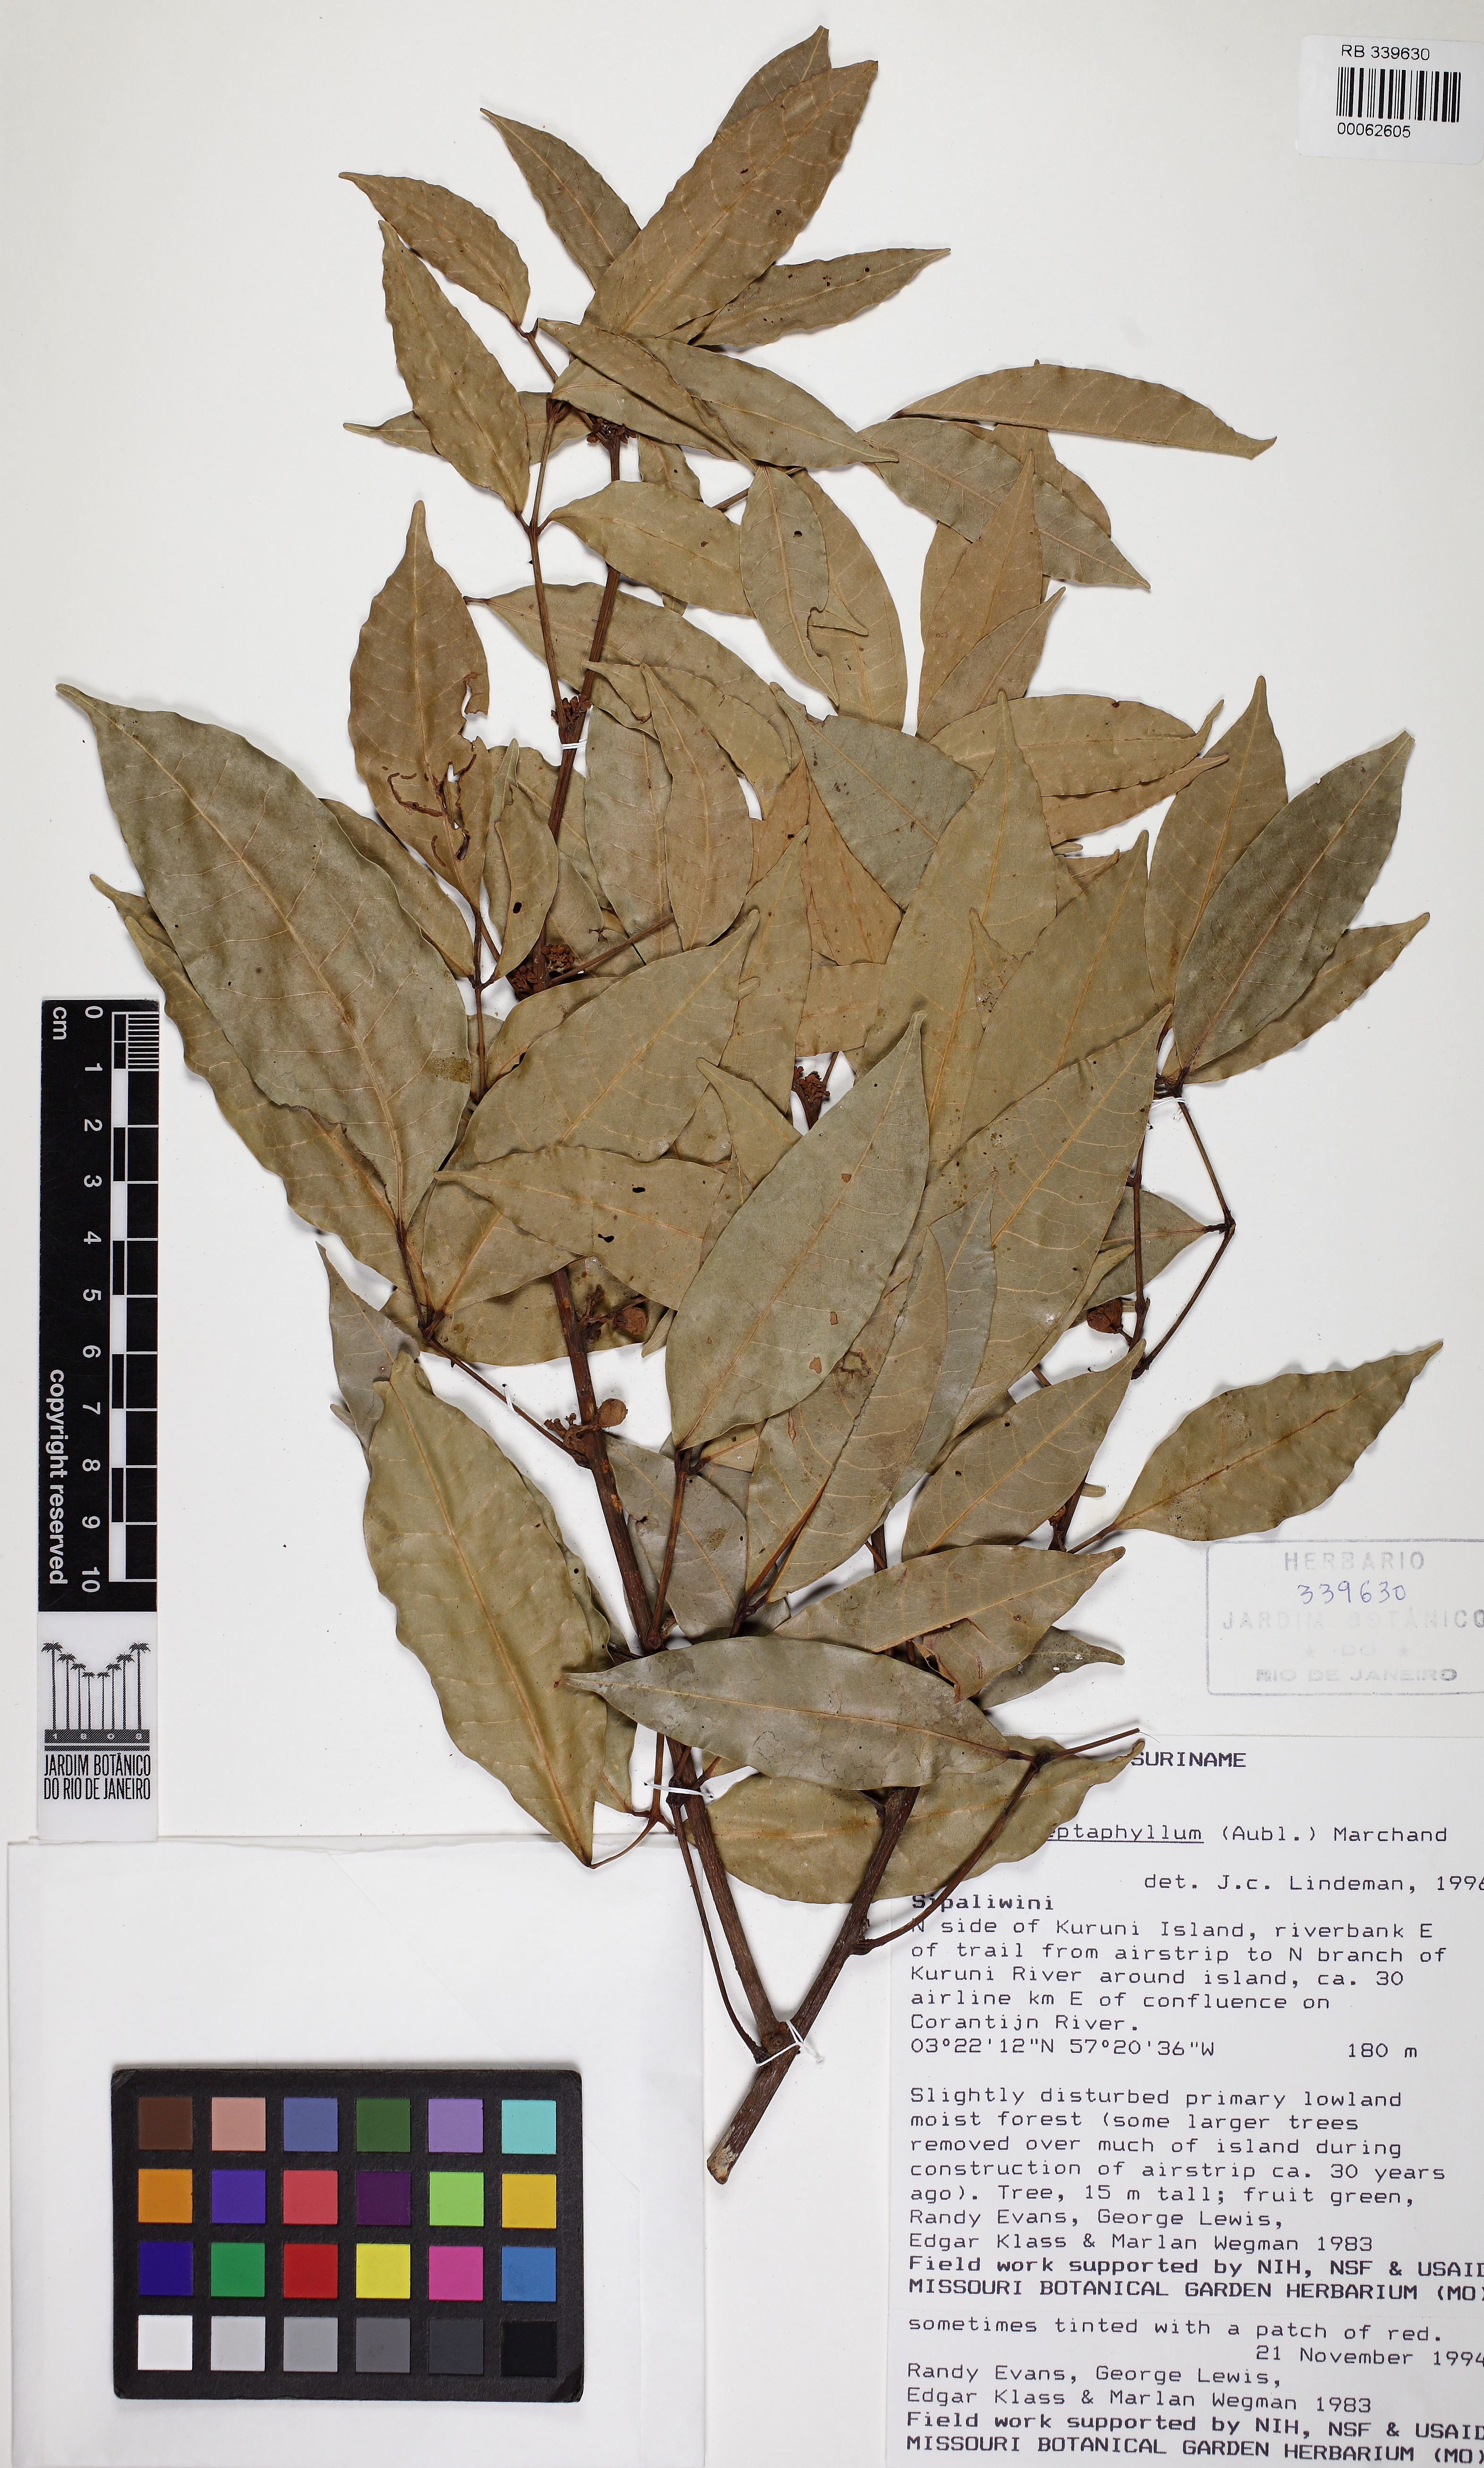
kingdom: Plantae
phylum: Tracheophyta
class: Magnoliopsida
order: Sapindales
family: Burseraceae
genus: Protium
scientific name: Protium heptaphyllum
